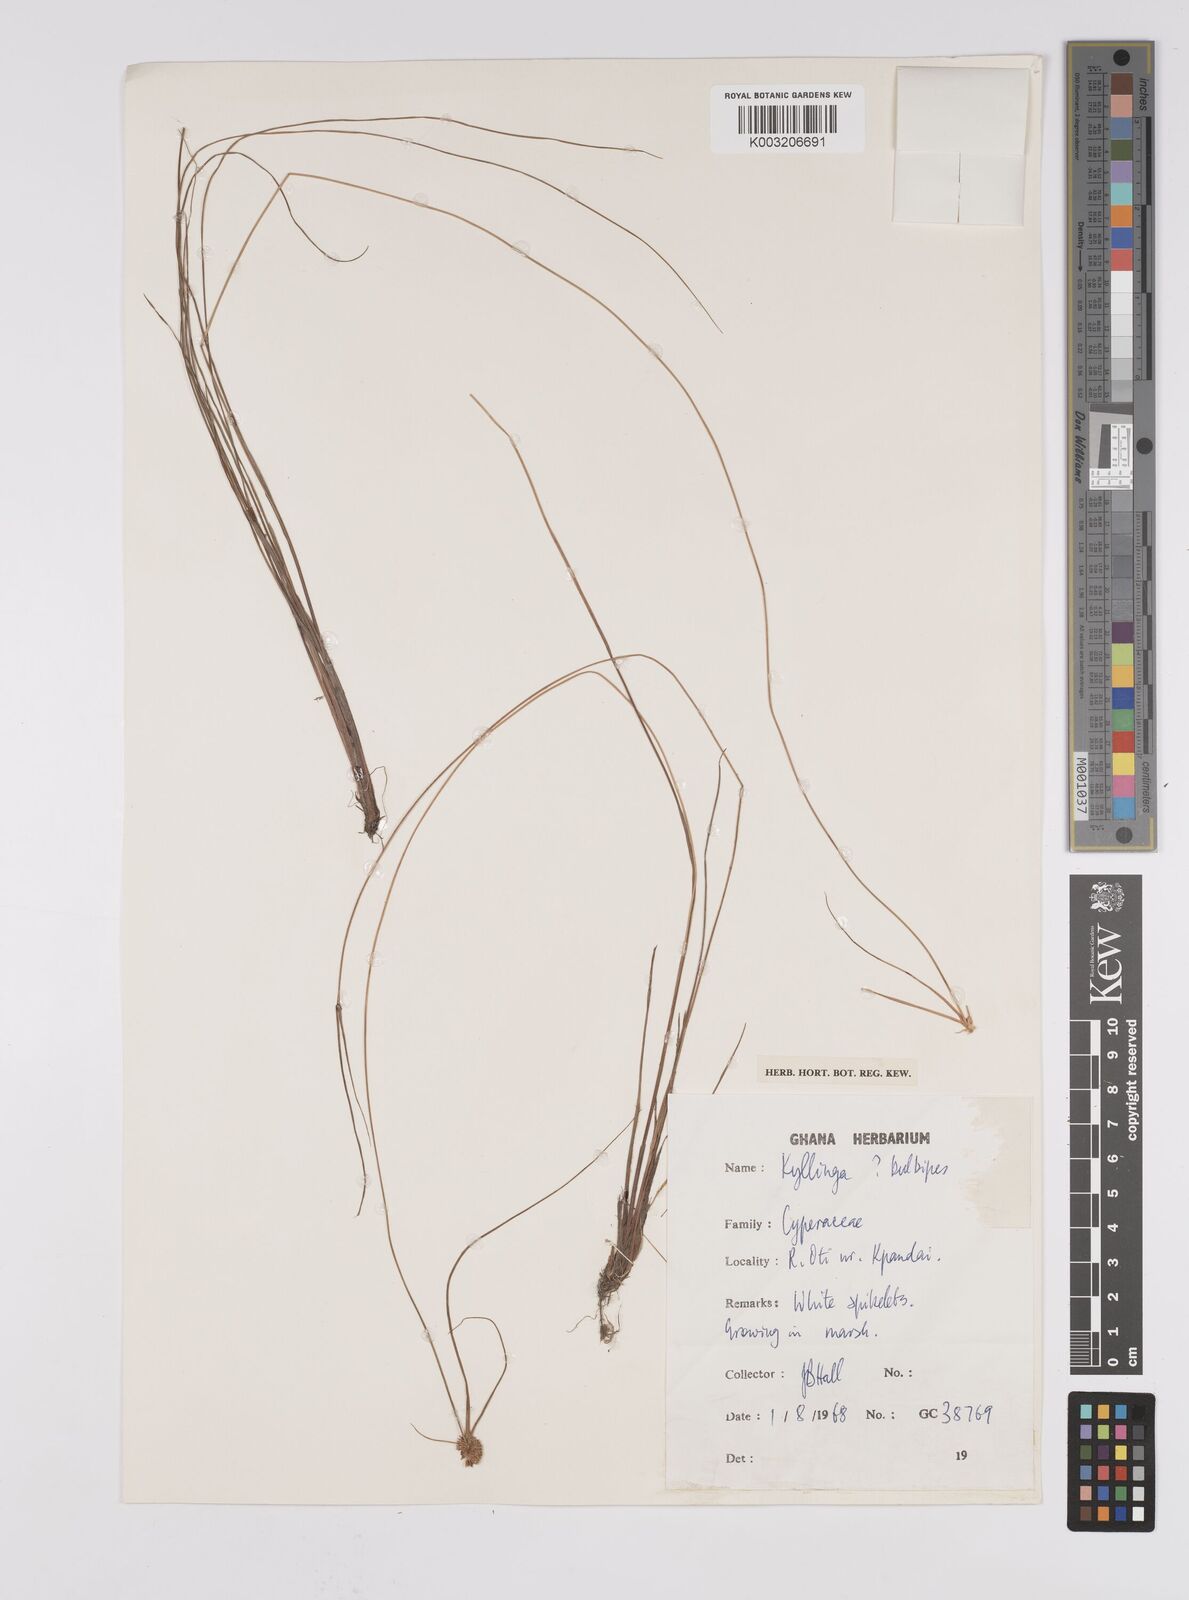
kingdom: Plantae
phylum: Tracheophyta
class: Liliopsida
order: Poales
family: Cyperaceae
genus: Cyperus
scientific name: Cyperus
